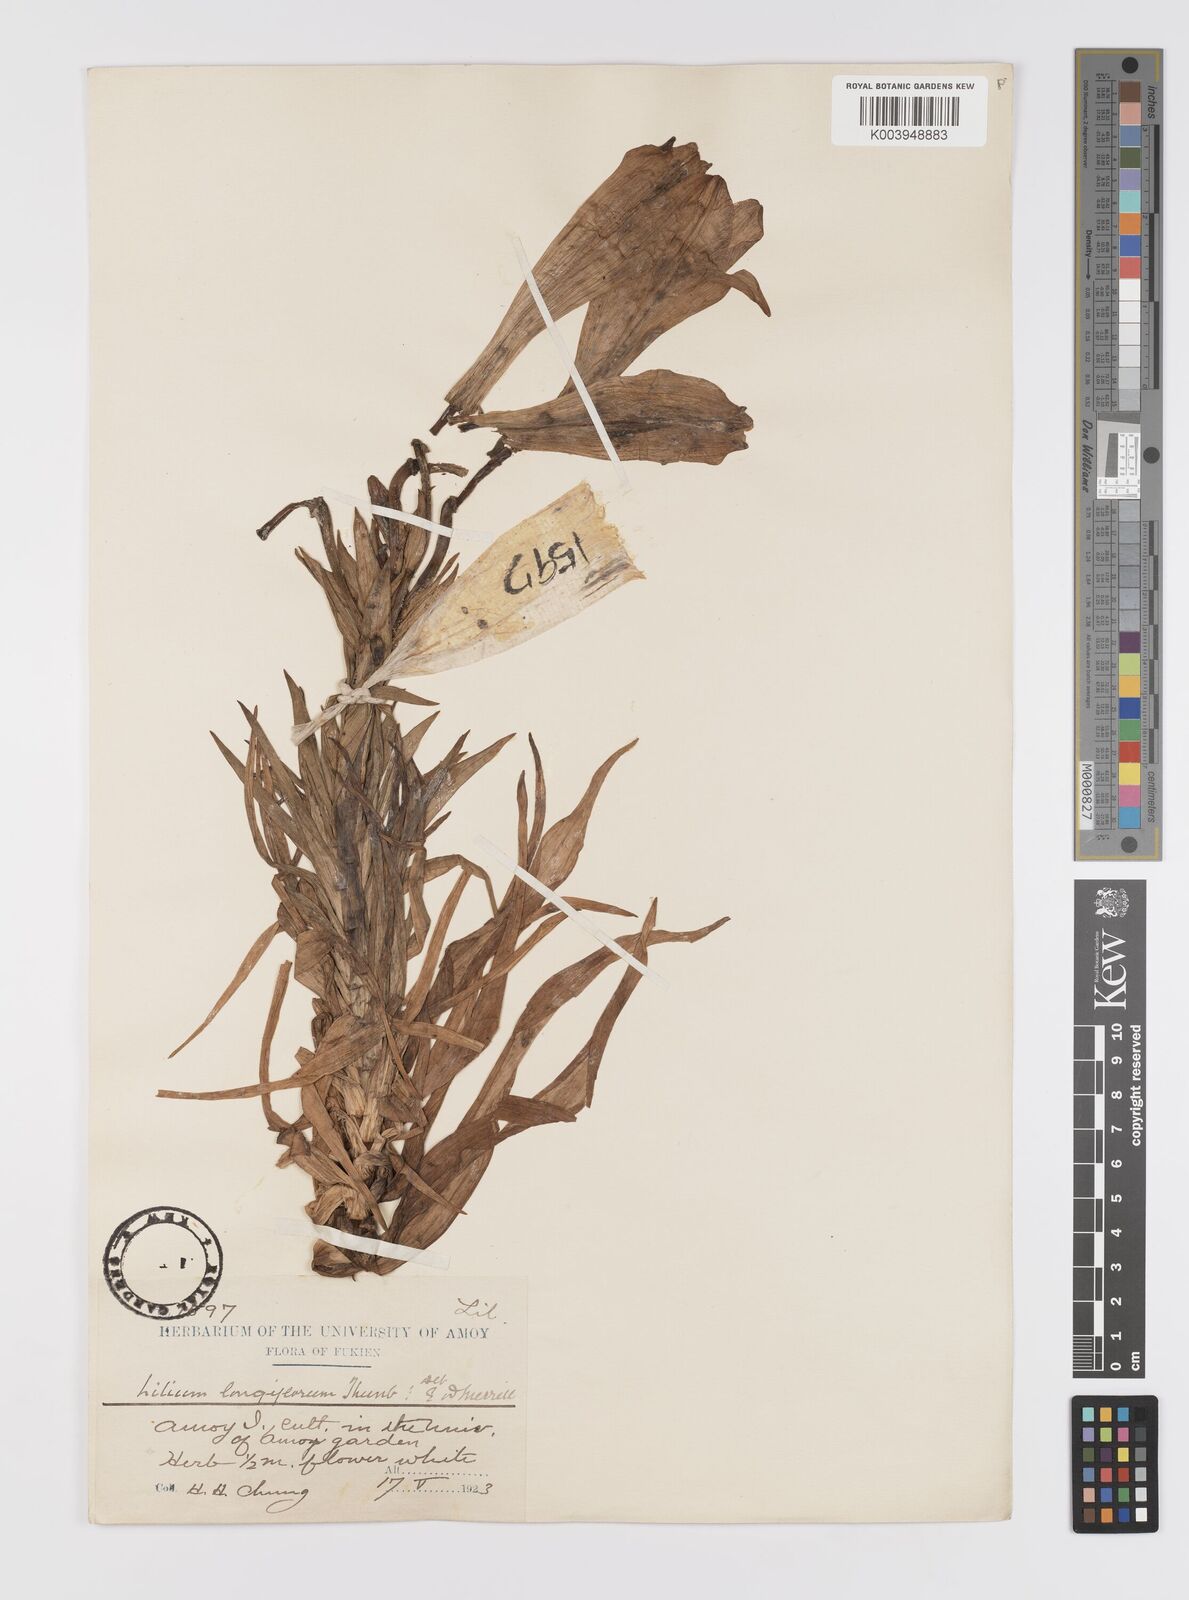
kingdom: Plantae
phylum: Tracheophyta
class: Liliopsida
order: Liliales
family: Liliaceae
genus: Lilium
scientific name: Lilium longiflorum
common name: Easter lily
